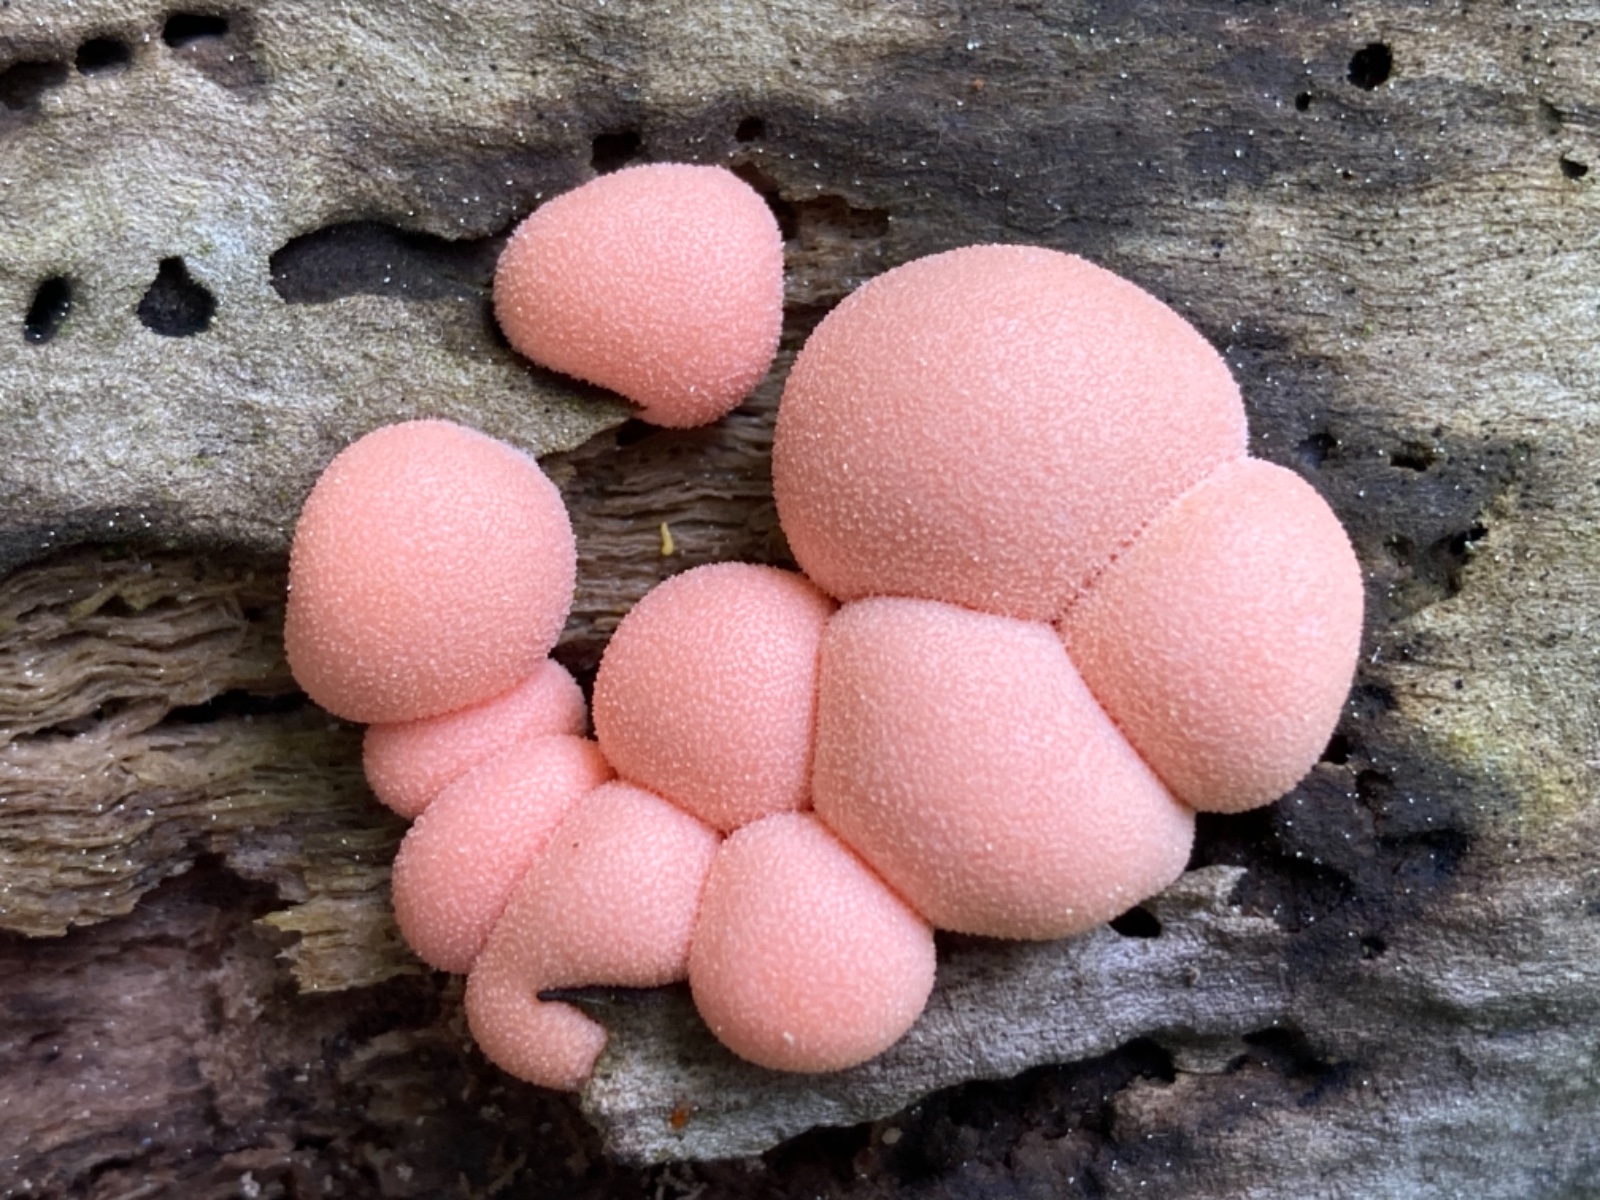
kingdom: Protozoa
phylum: Mycetozoa
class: Myxomycetes
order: Cribrariales
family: Tubiferaceae
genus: Lycogala
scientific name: Lycogala epidendrum
